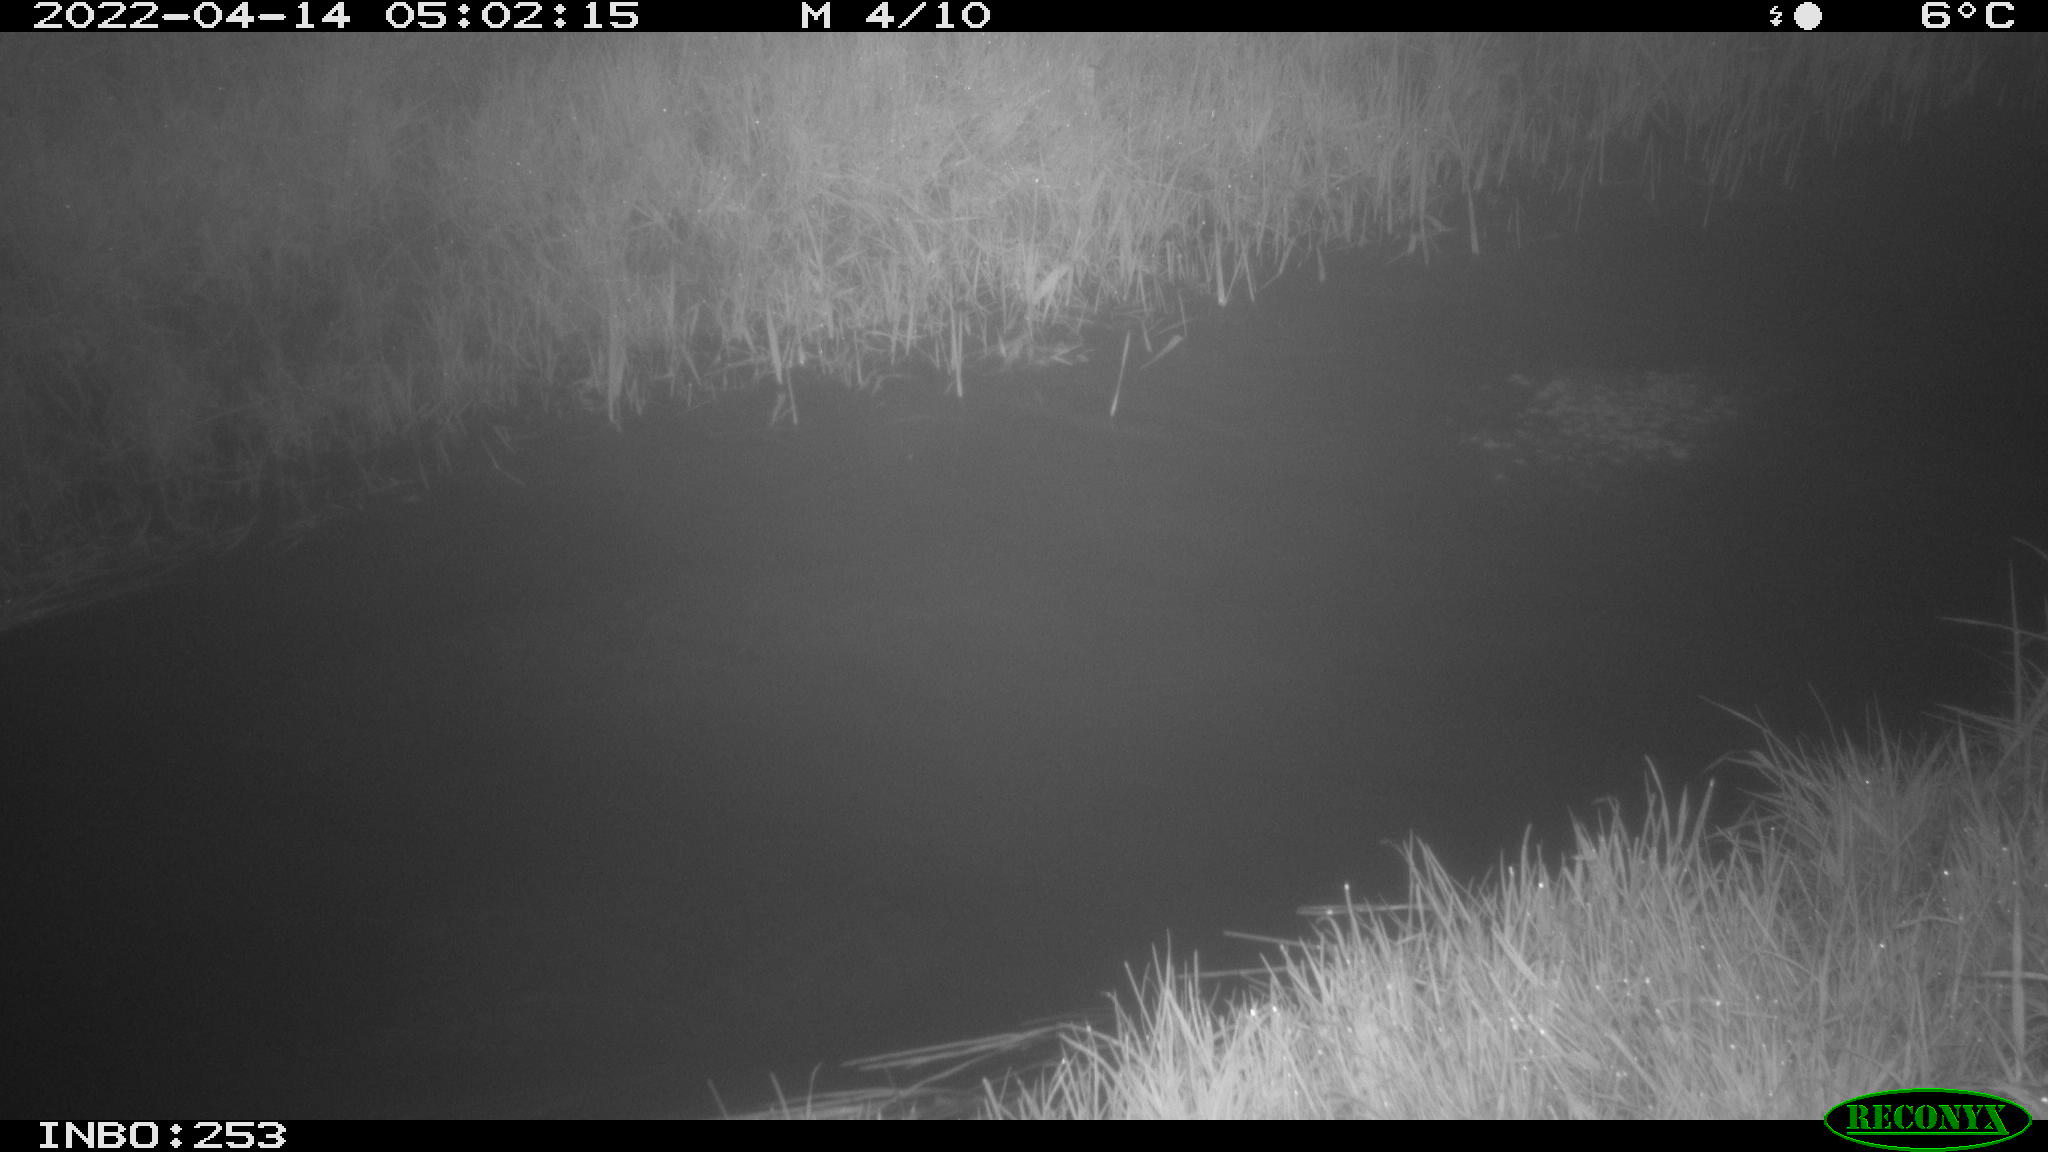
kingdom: Animalia
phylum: Chordata
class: Aves
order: Anseriformes
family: Anatidae
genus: Anas
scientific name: Anas platyrhynchos
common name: Mallard
